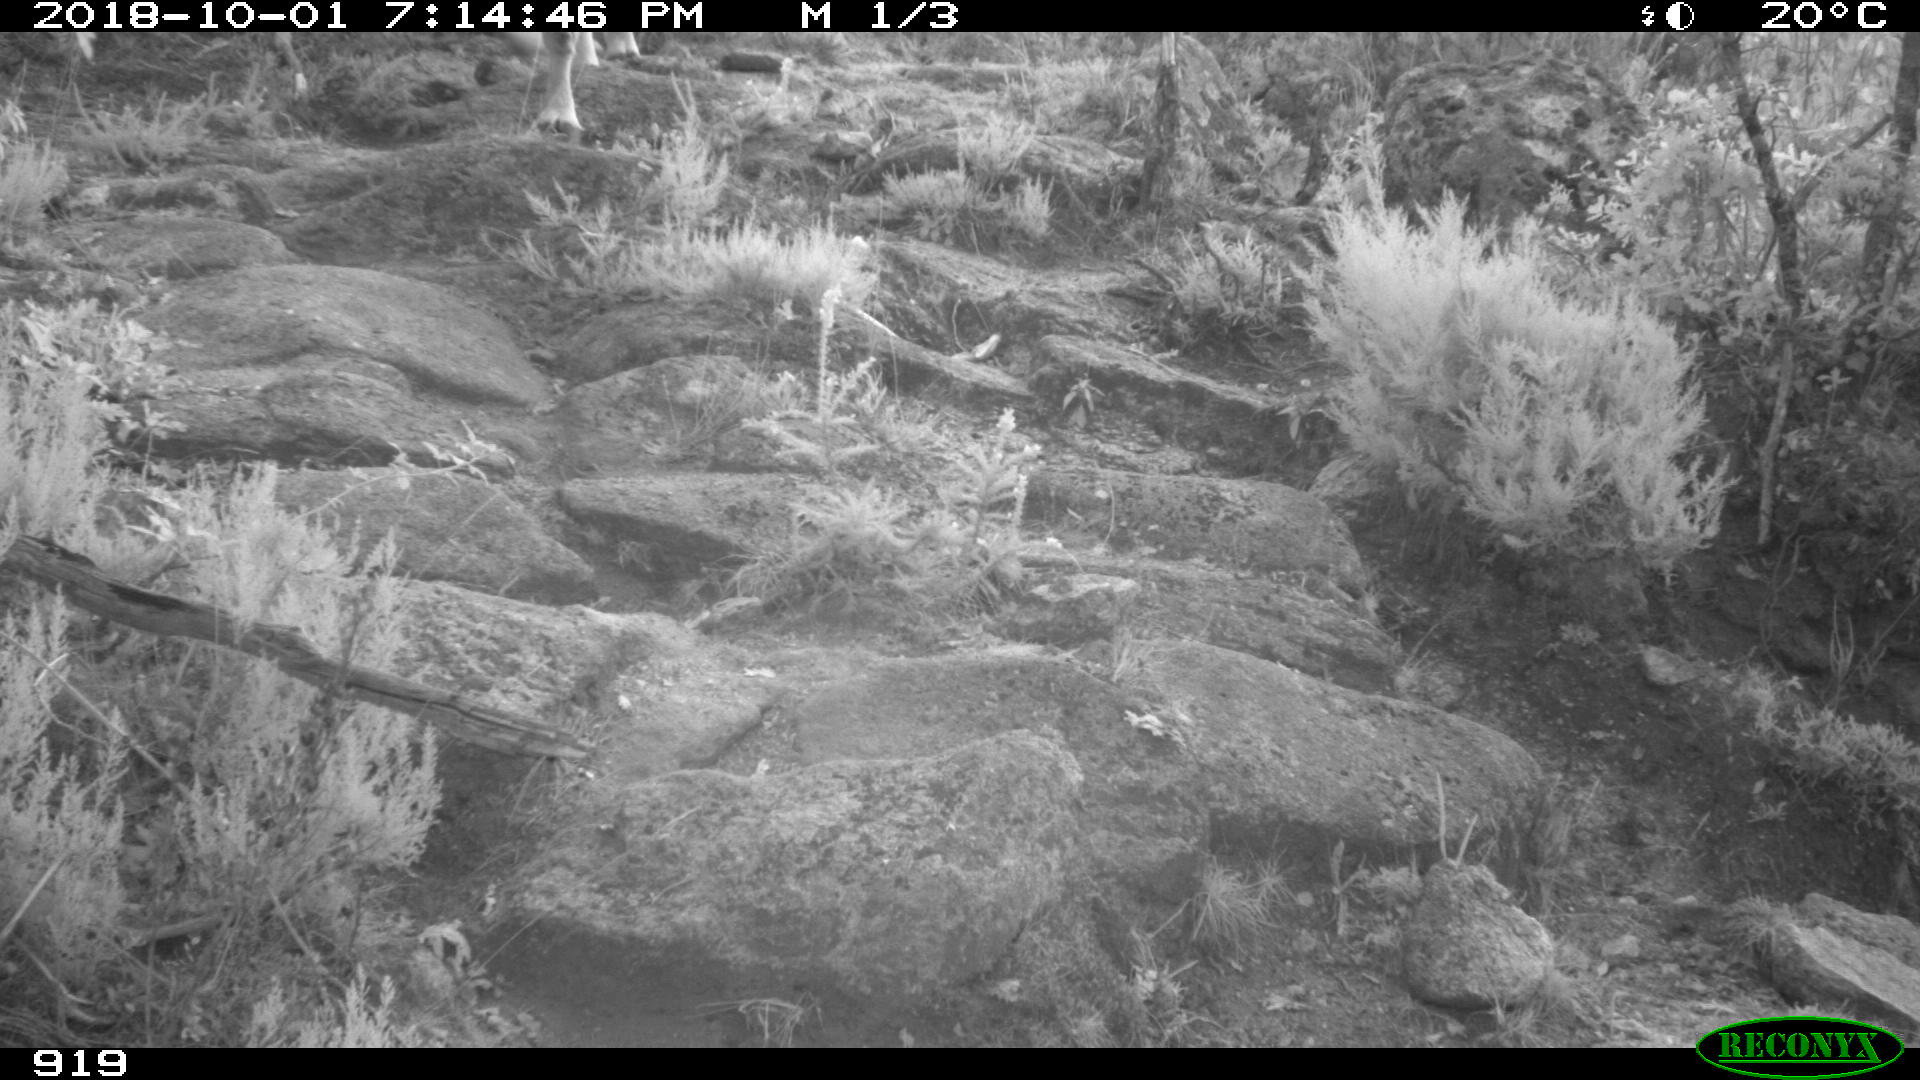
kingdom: Animalia
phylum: Chordata
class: Mammalia
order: Artiodactyla
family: Bovidae
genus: Bos
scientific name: Bos taurus
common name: Domesticated cattle
